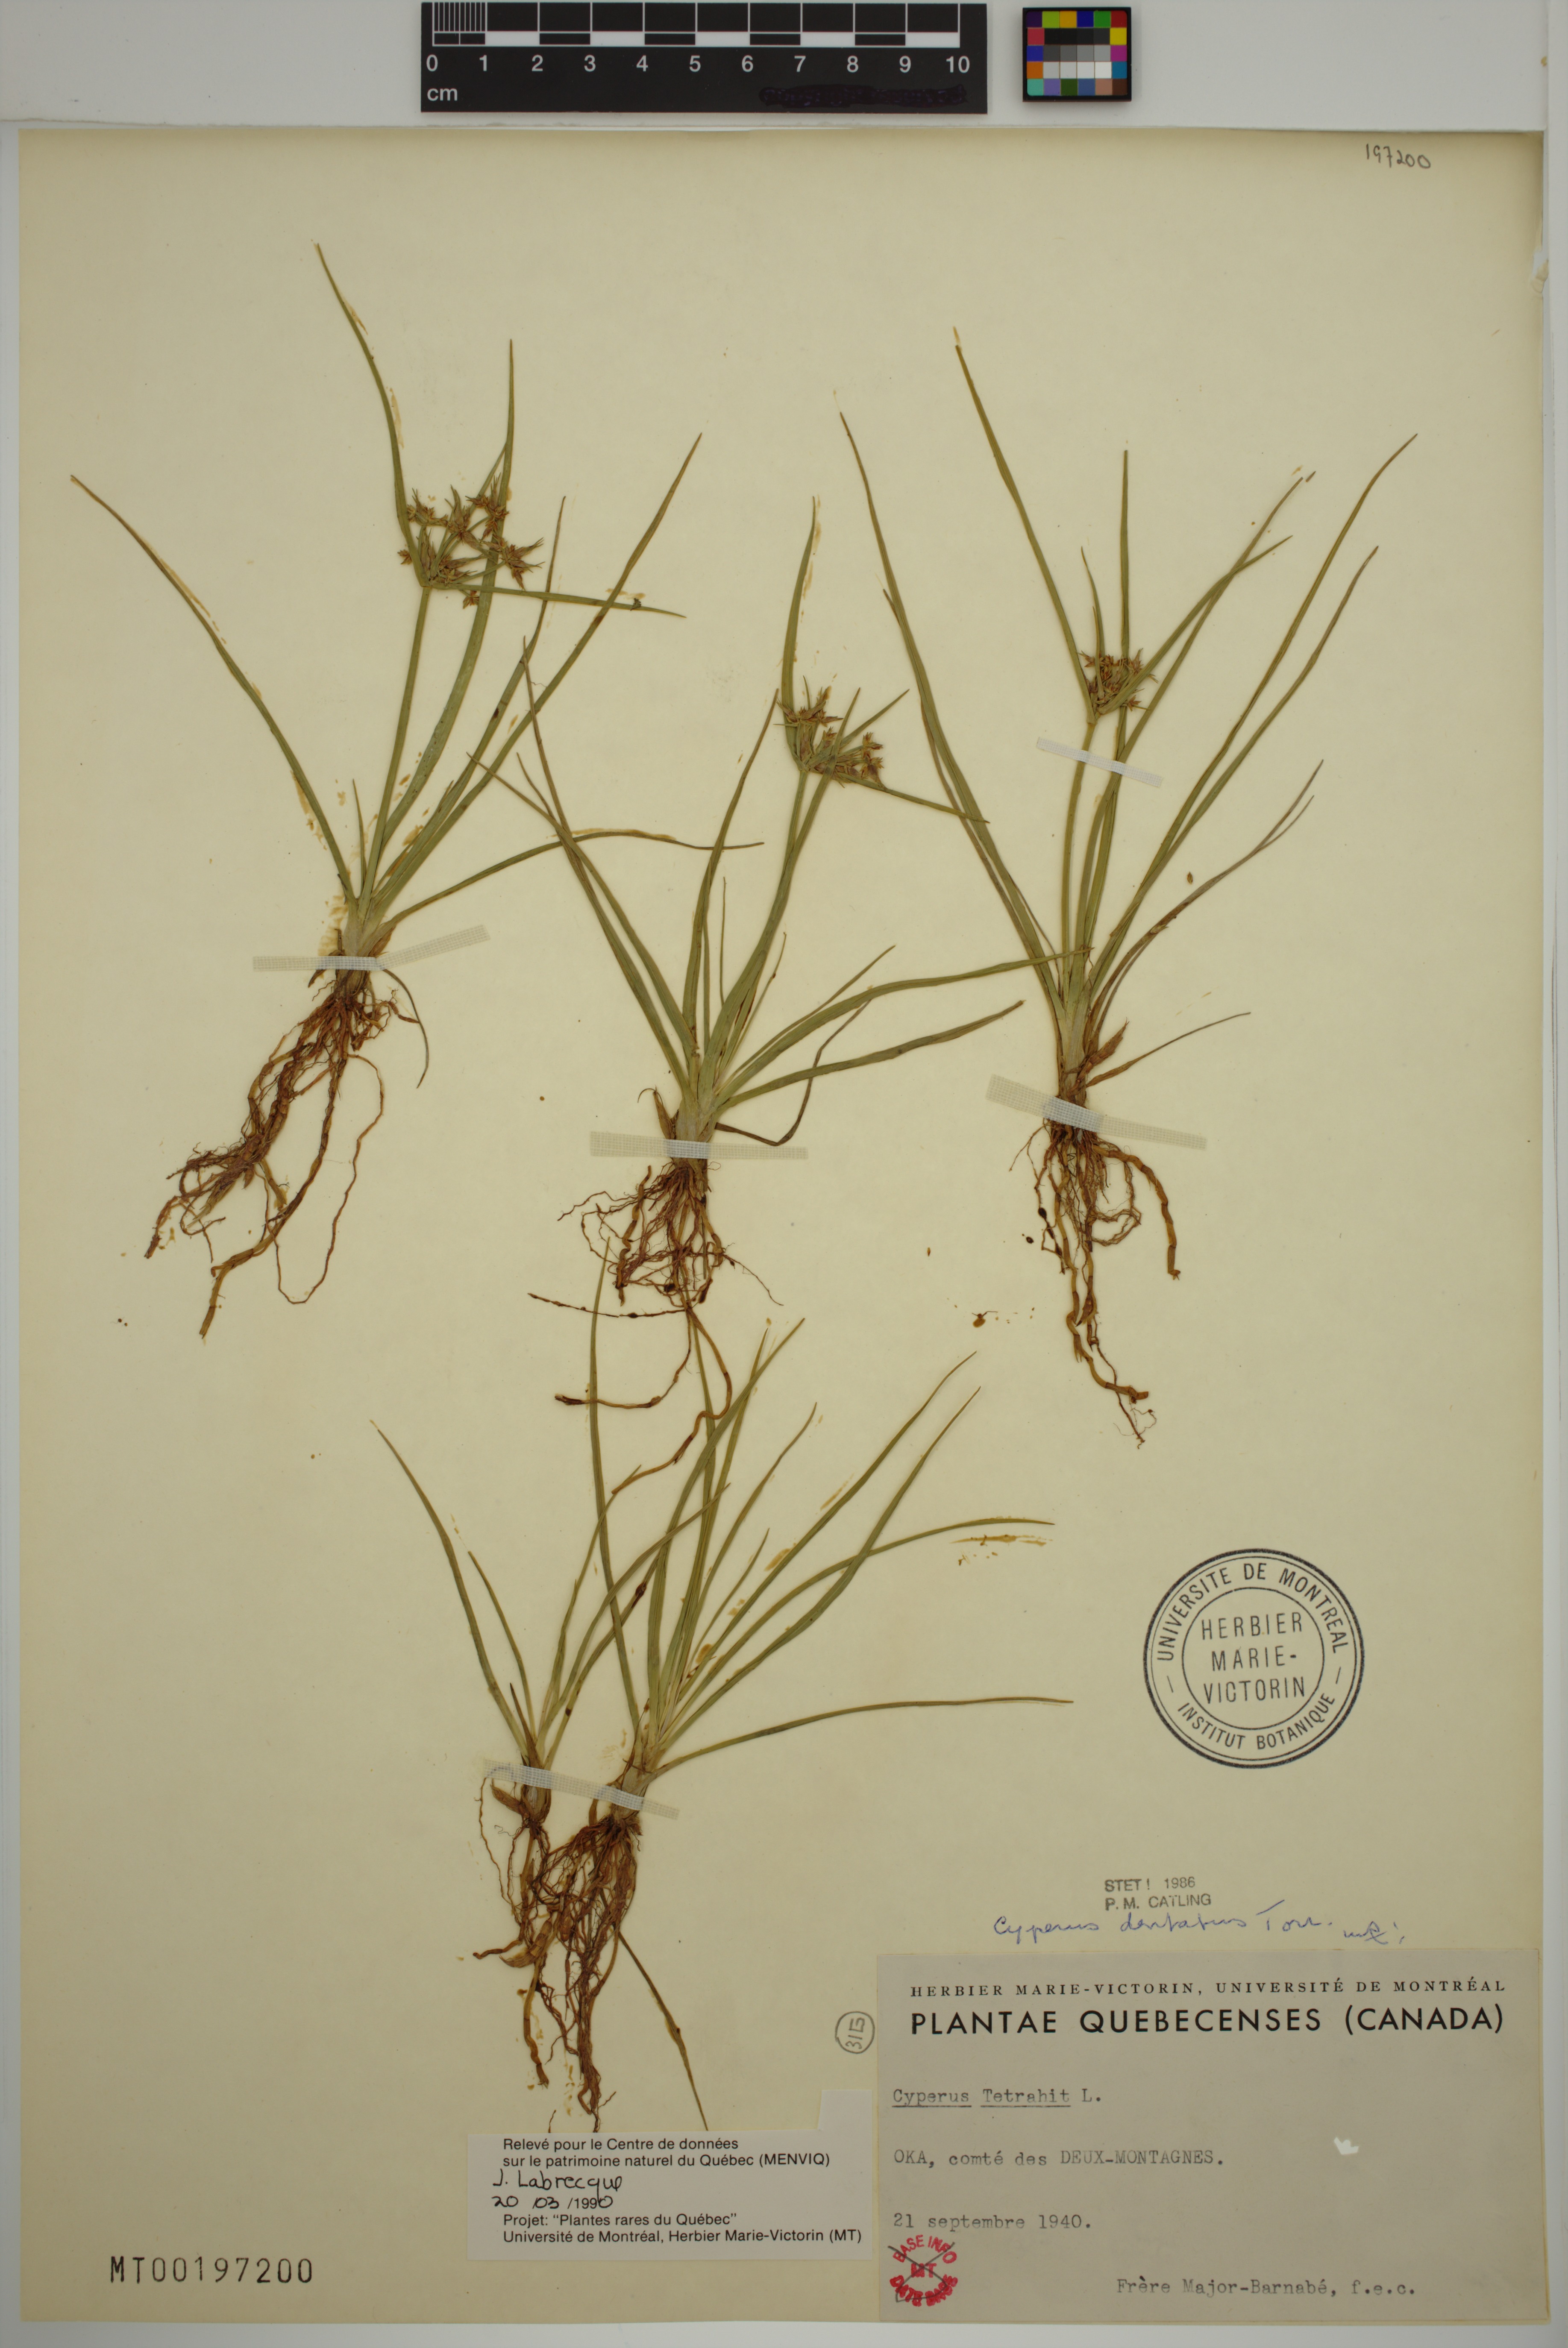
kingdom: Plantae
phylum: Tracheophyta
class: Liliopsida
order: Poales
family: Cyperaceae
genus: Cyperus
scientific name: Cyperus dentatus
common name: Dentate umbrella sedge
